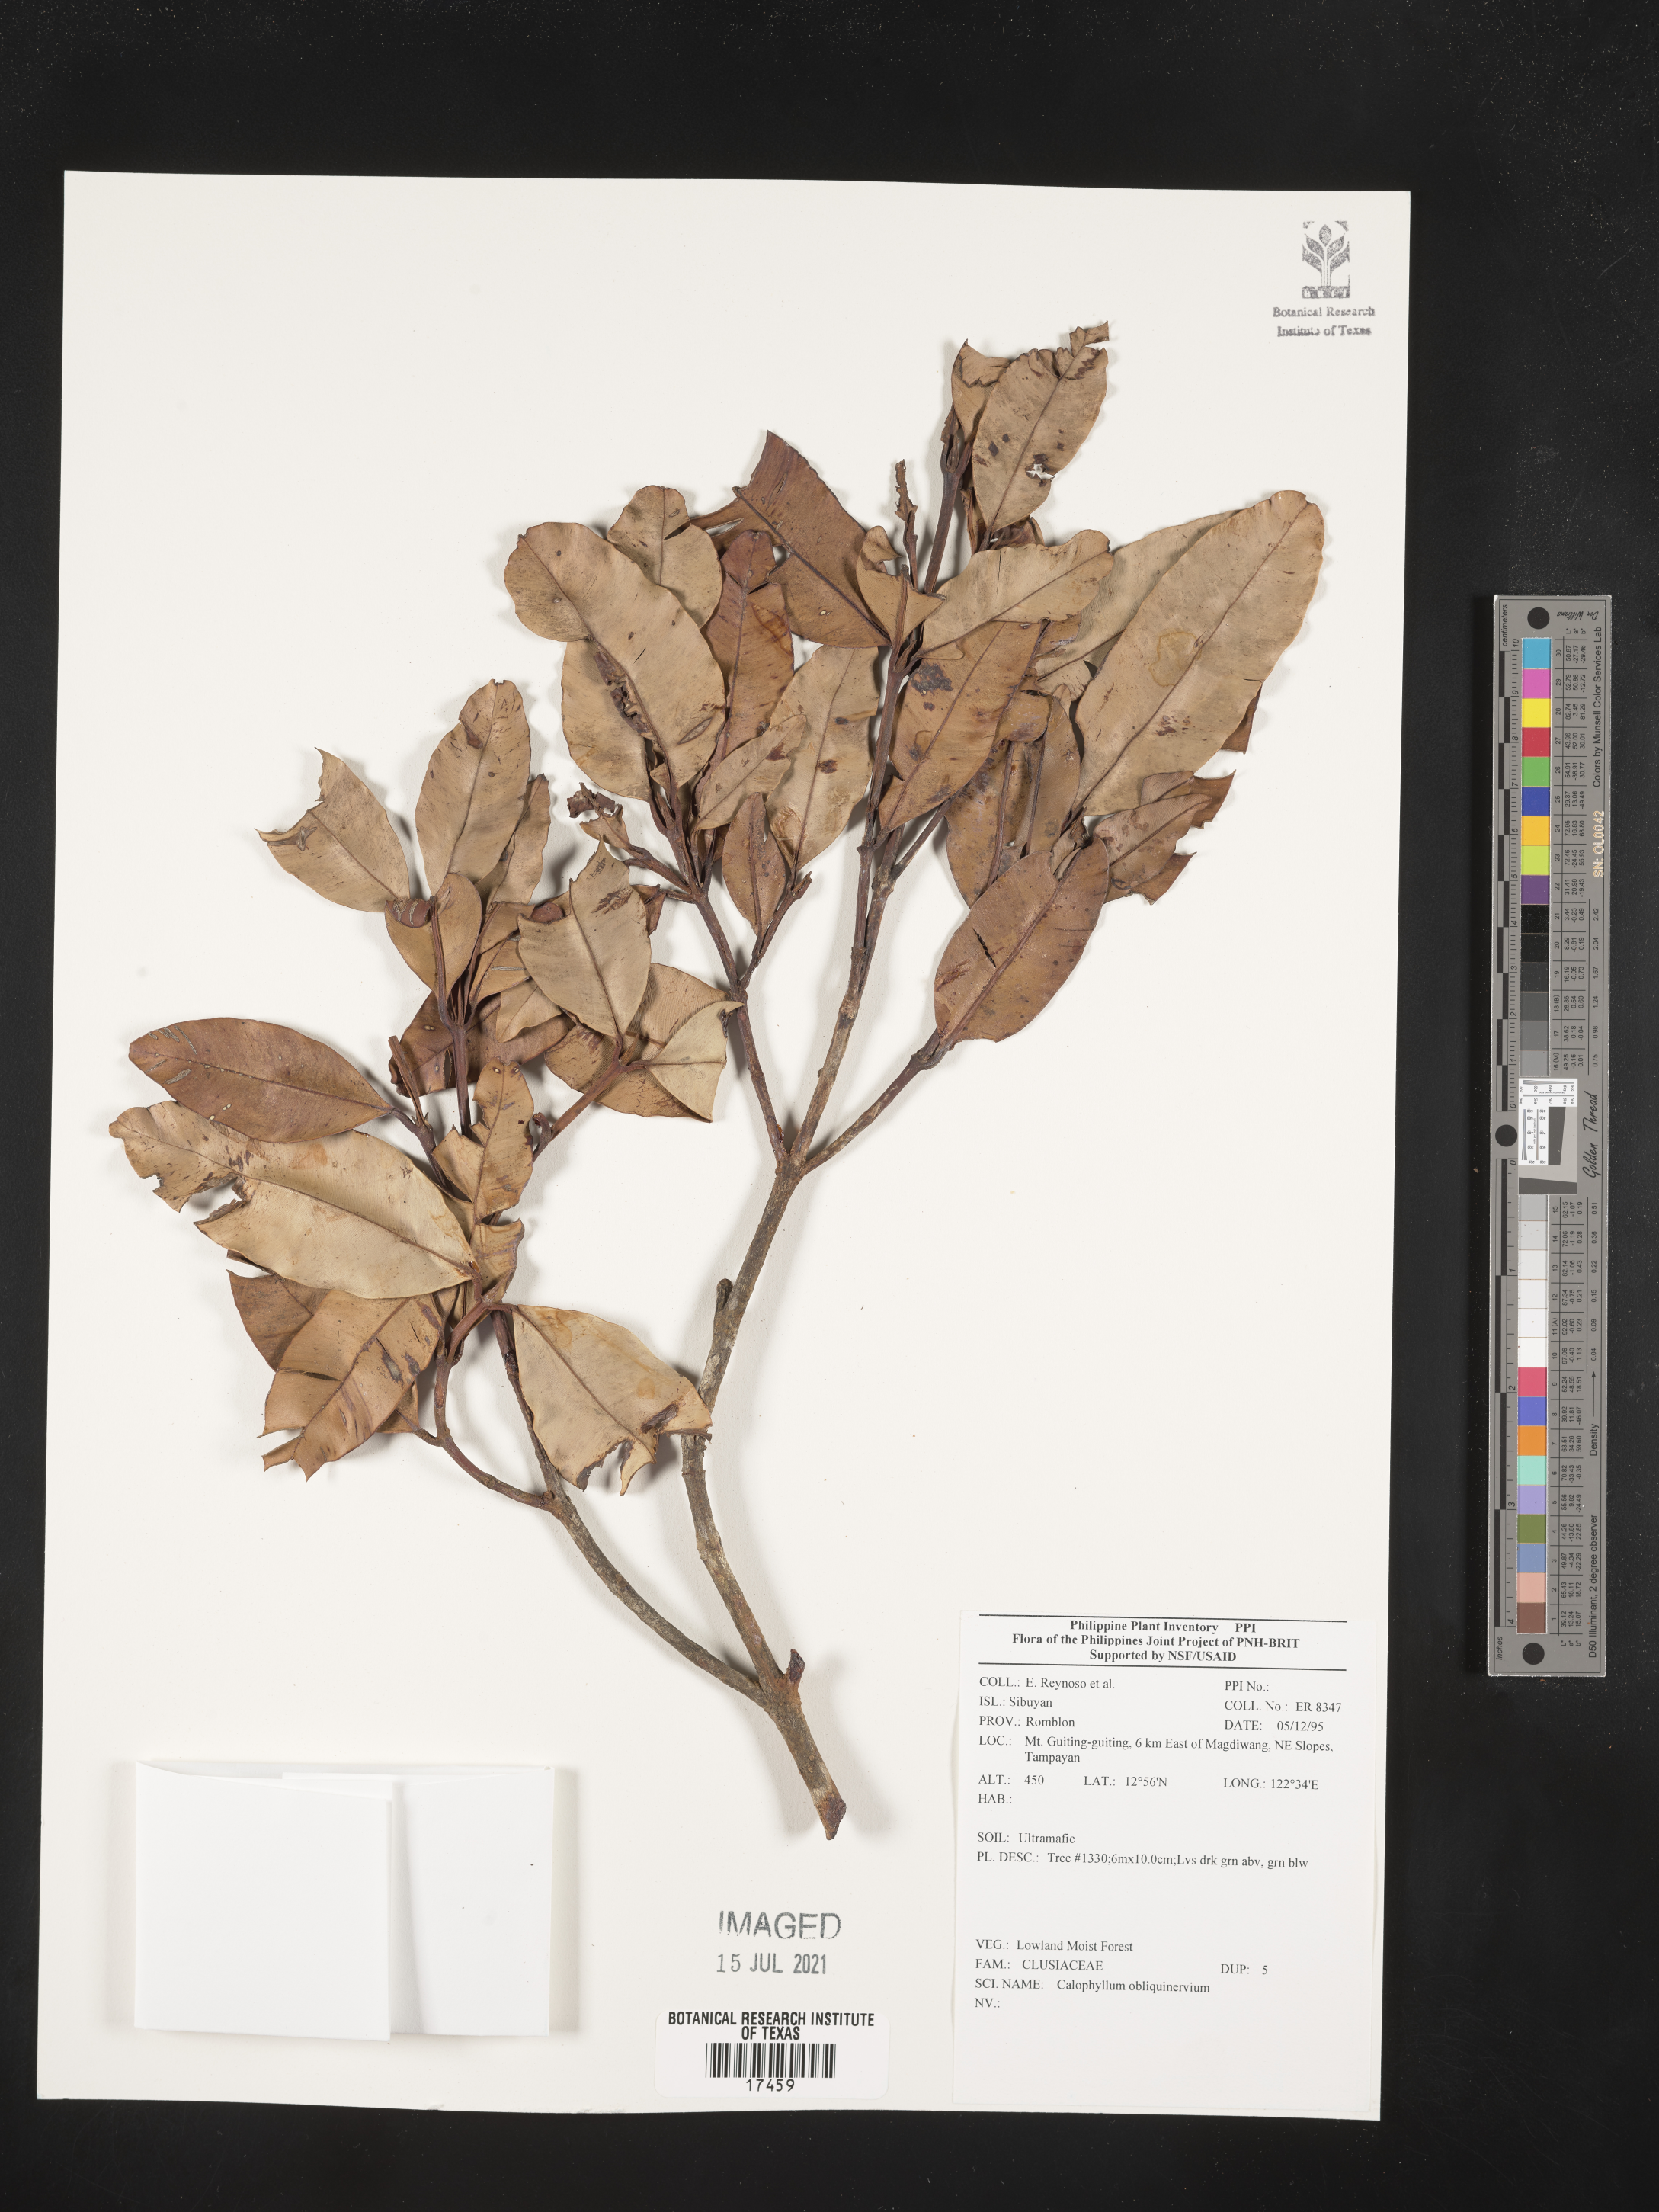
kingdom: Plantae
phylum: Tracheophyta
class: Magnoliopsida
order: Malpighiales
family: Calophyllaceae
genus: Calophyllum
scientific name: Calophyllum obliquinervium
